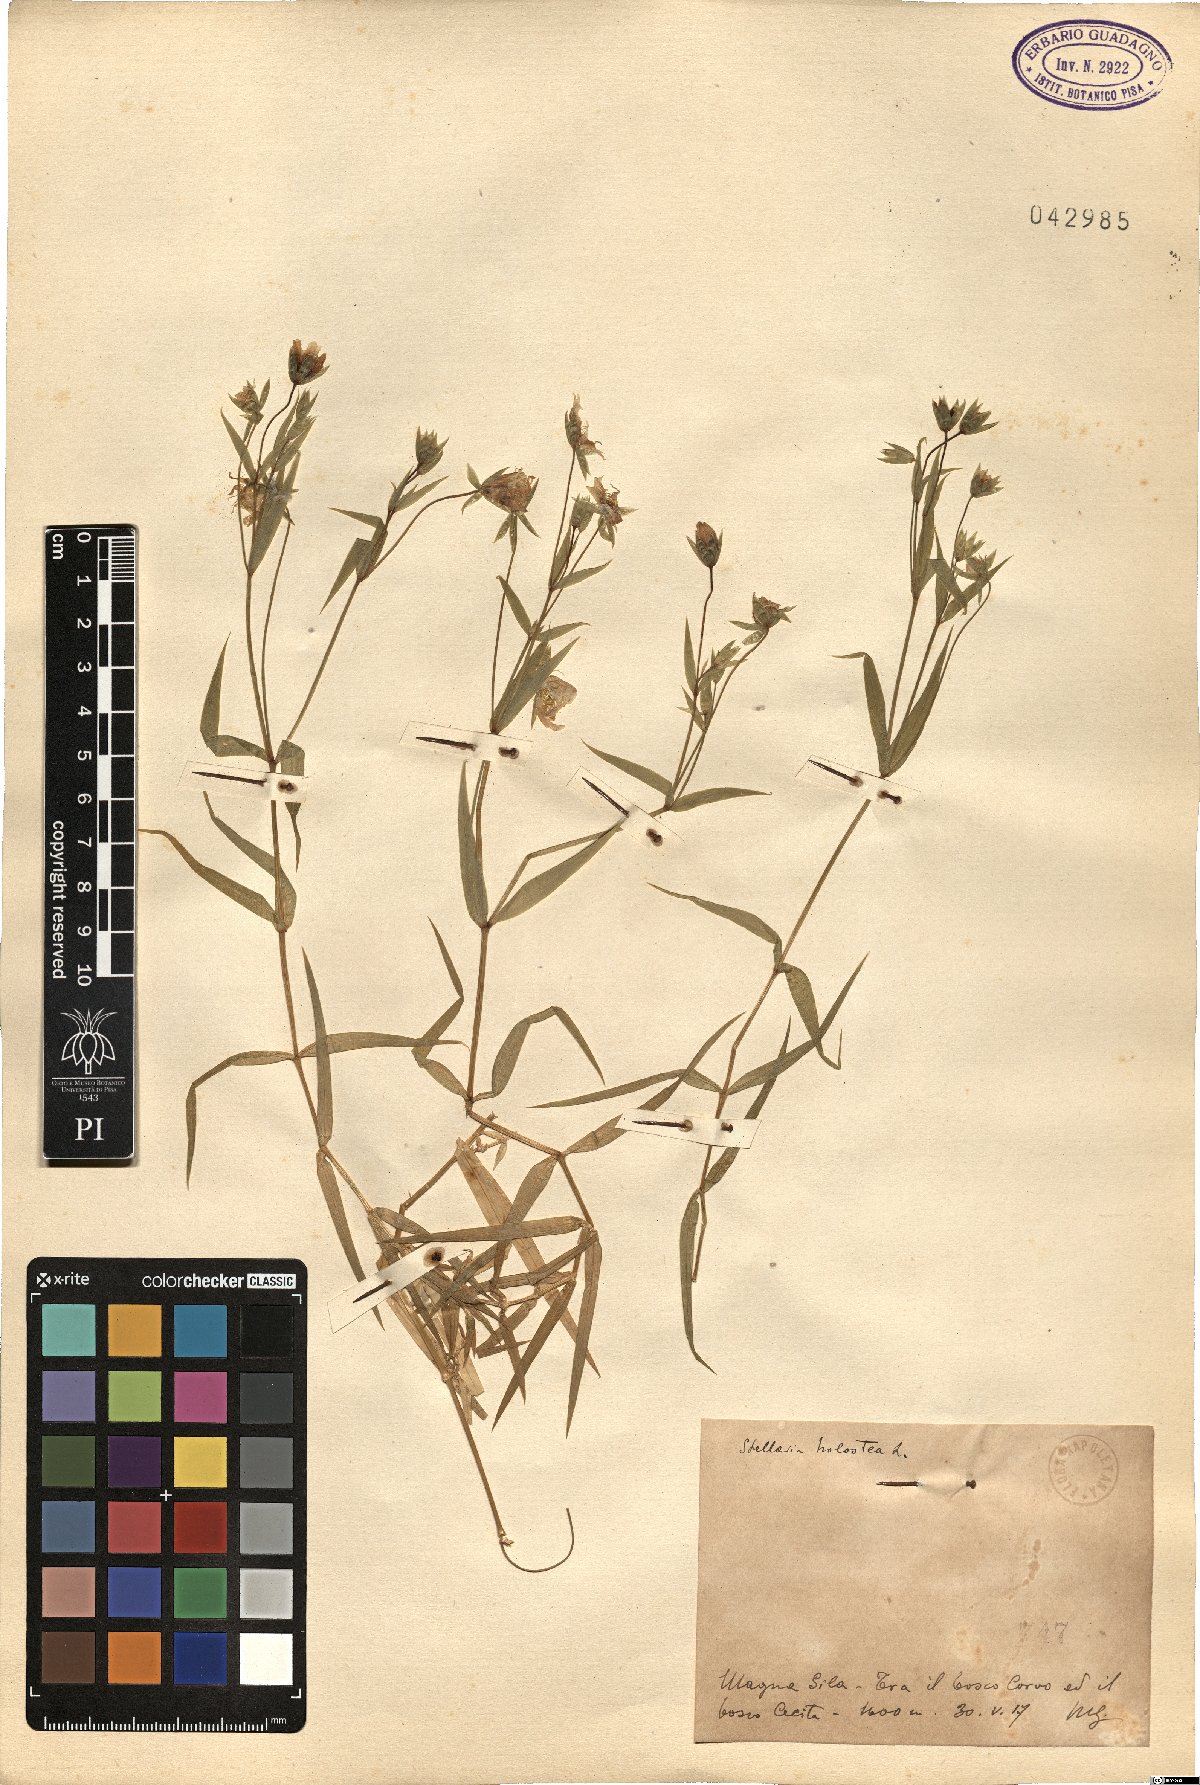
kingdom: Plantae
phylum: Tracheophyta
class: Magnoliopsida
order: Caryophyllales
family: Caryophyllaceae
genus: Rabelera
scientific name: Rabelera holostea
